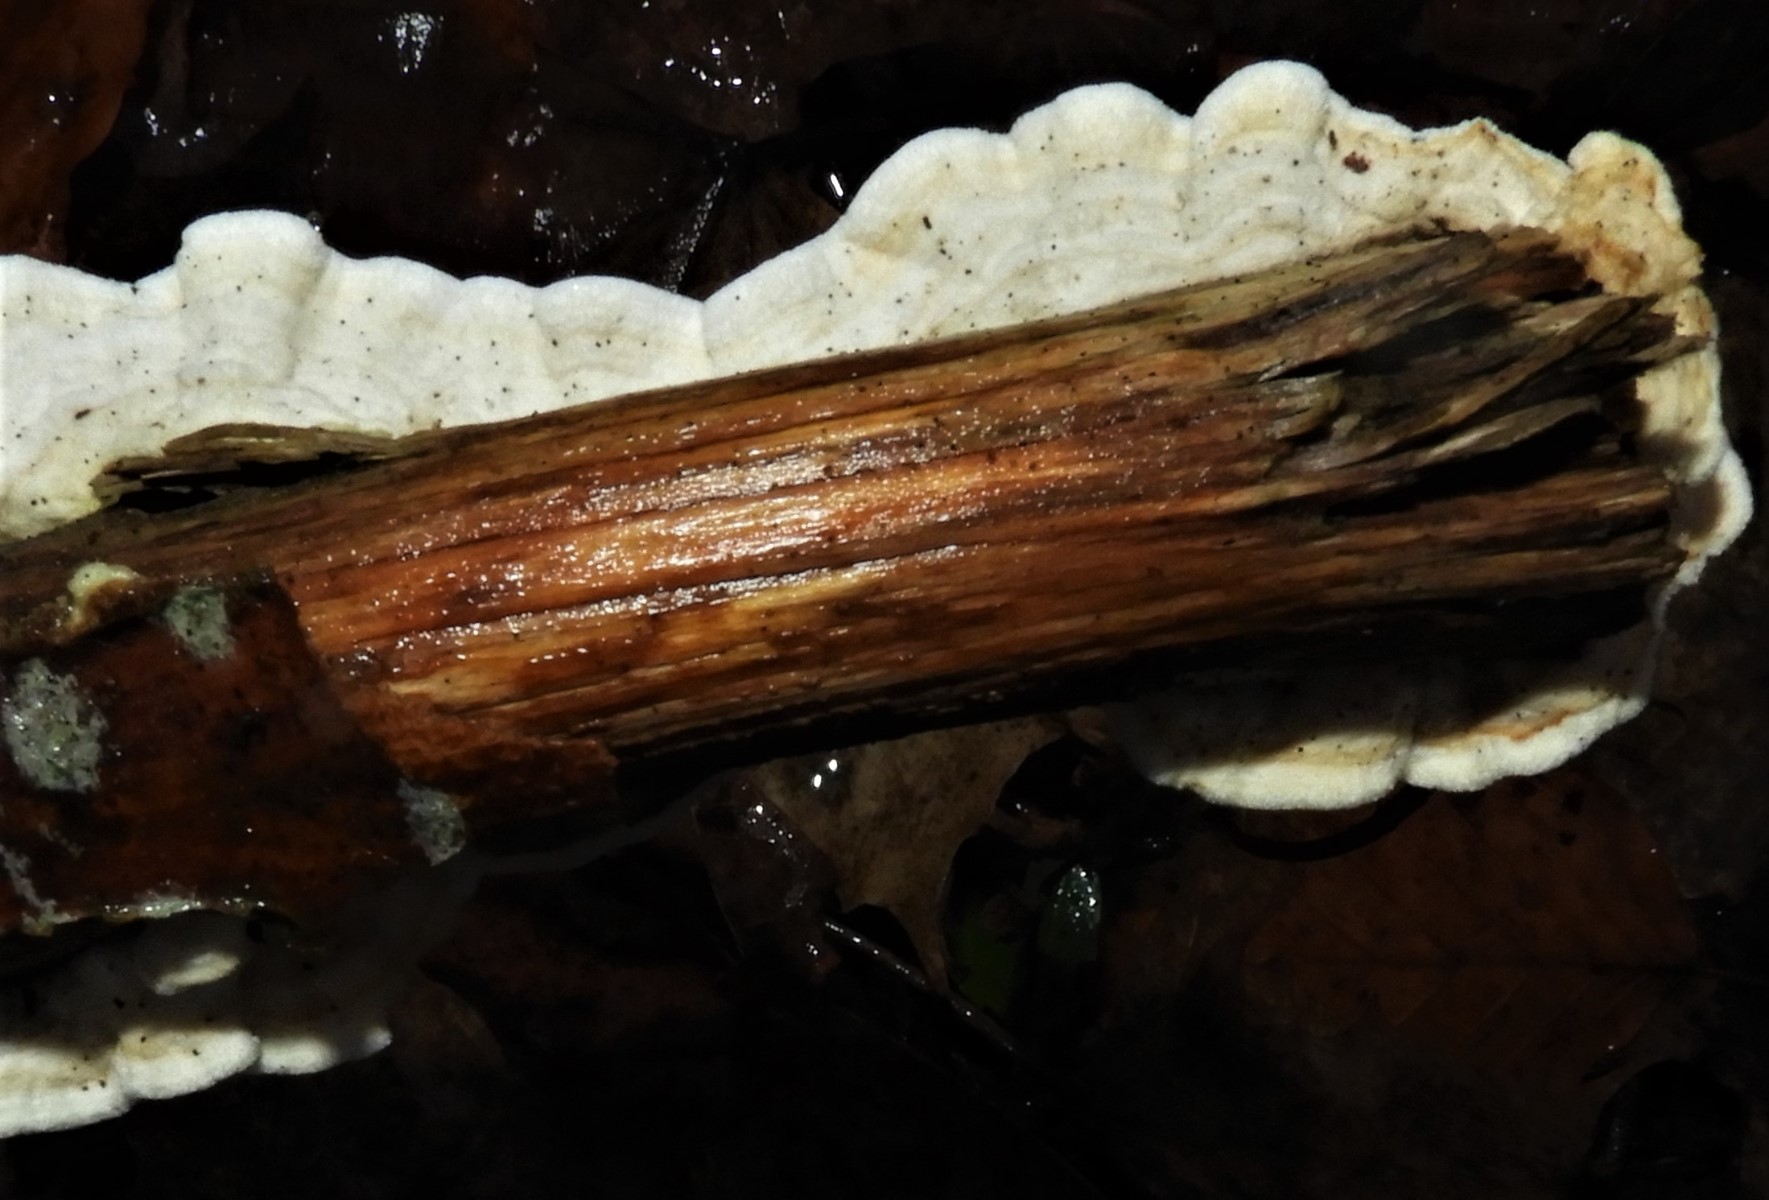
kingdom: Fungi
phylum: Basidiomycota
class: Agaricomycetes
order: Polyporales
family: Irpicaceae
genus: Byssomerulius
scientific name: Byssomerulius corium
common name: læder-åresvamp
